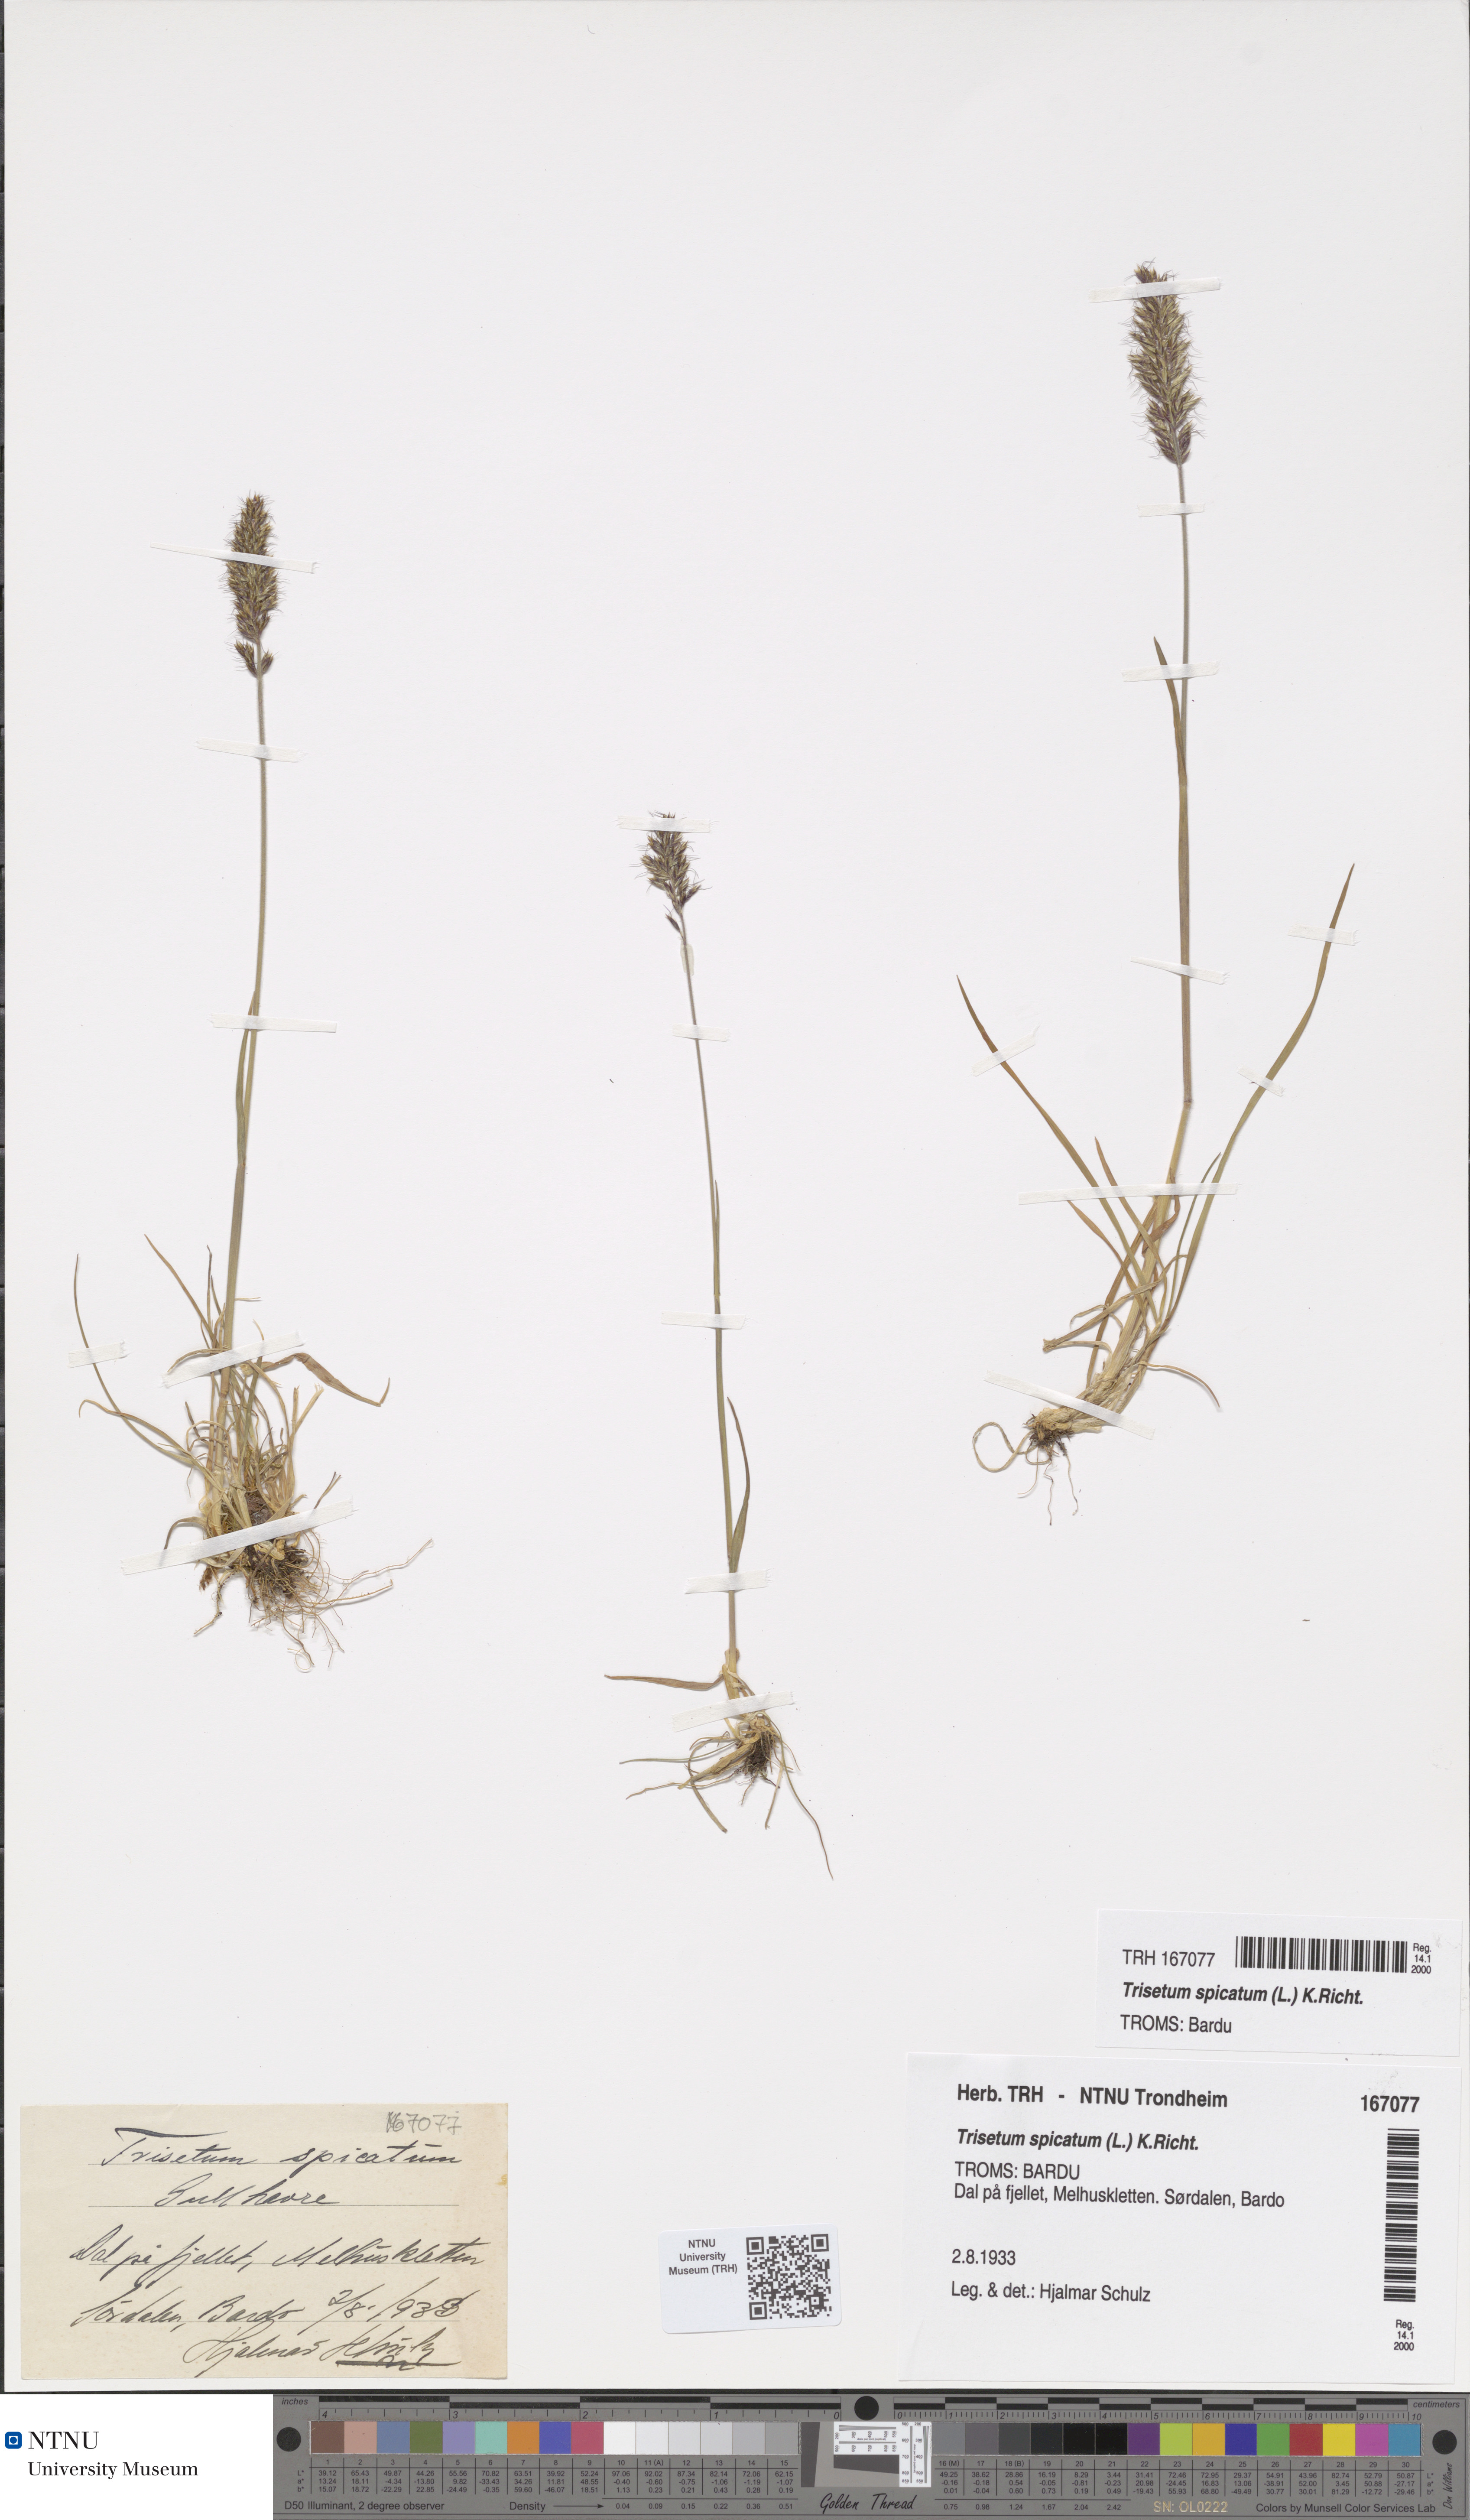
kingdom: Plantae
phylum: Tracheophyta
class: Liliopsida
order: Poales
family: Poaceae
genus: Koeleria
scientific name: Koeleria spicata
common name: Mountain trisetum
